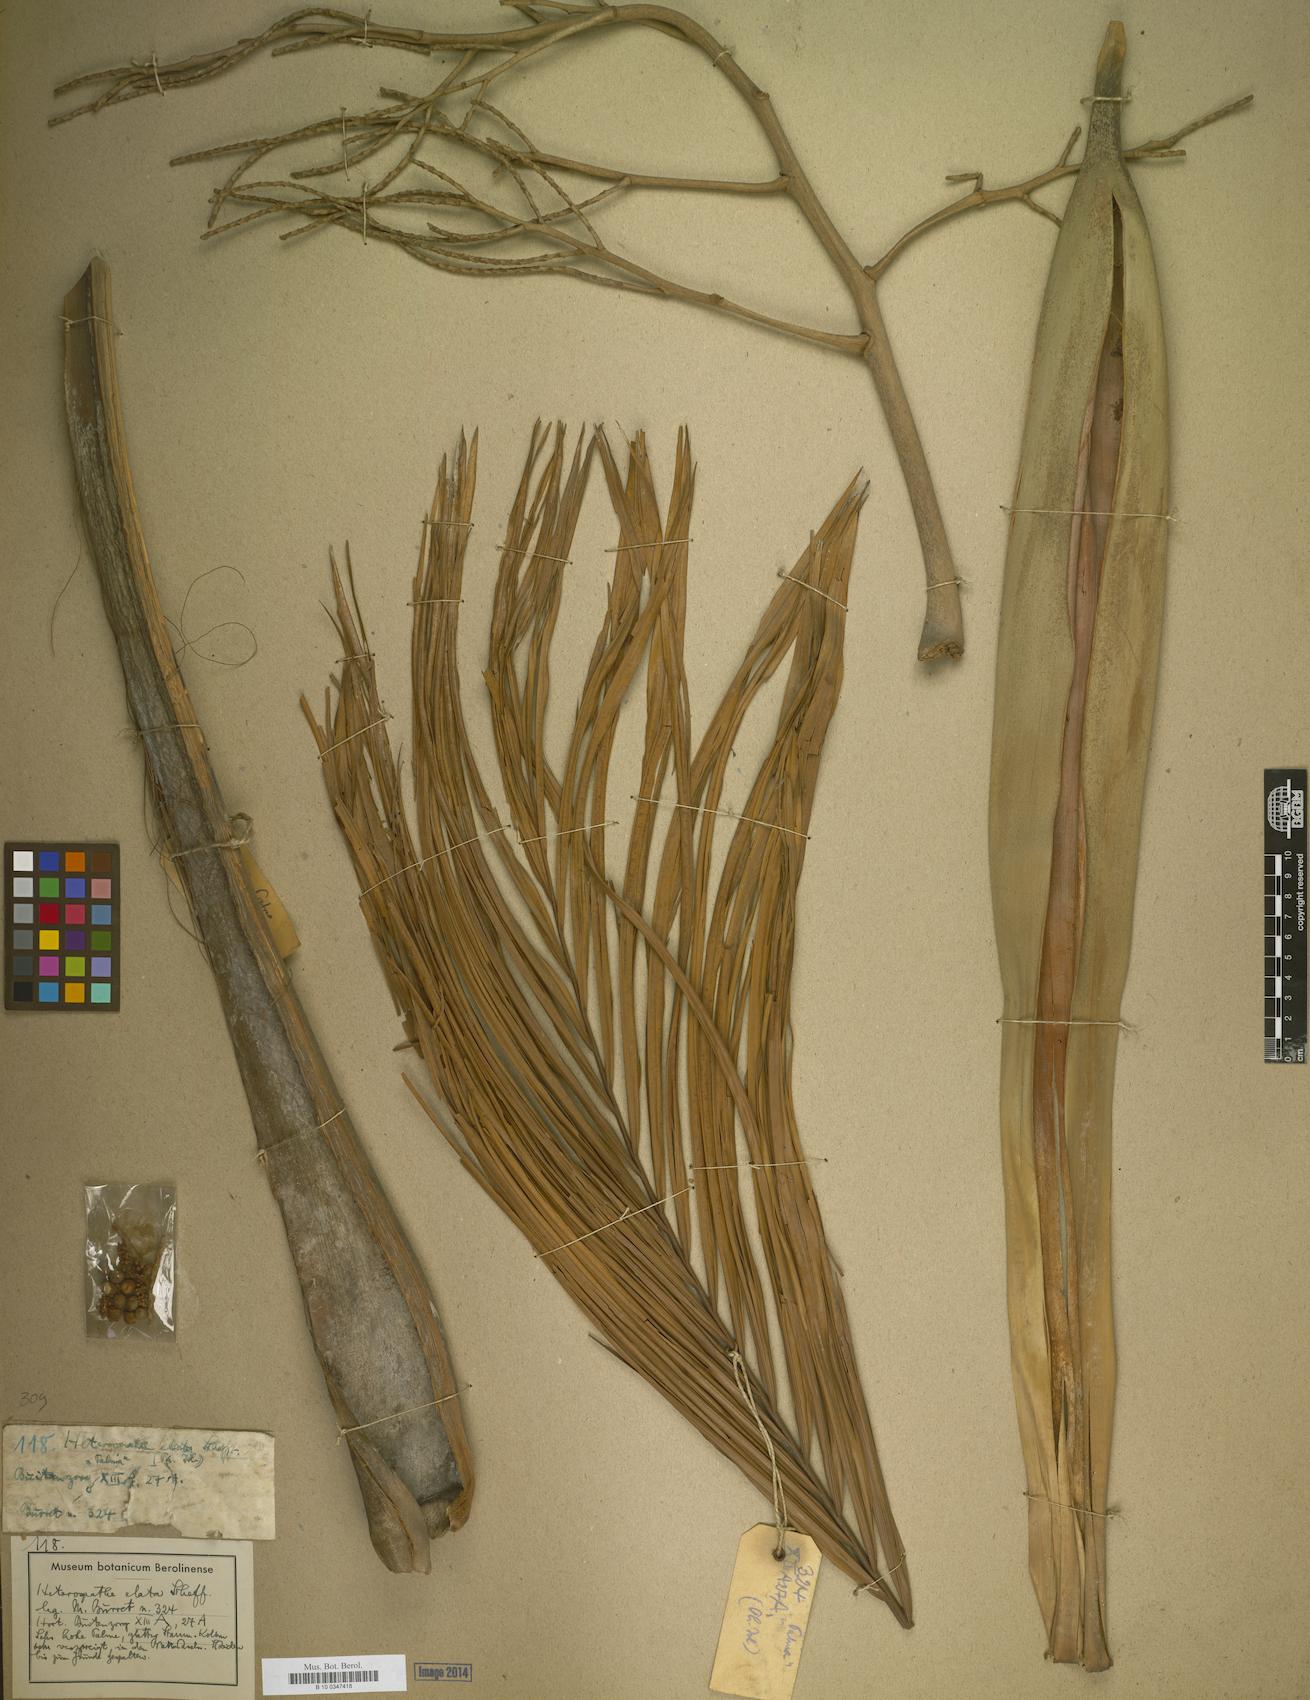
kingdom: Plantae
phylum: Tracheophyta
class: Liliopsida
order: Arecales
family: Arecaceae
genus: Heterospathe
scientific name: Heterospathe elata
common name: Sagisi palm
